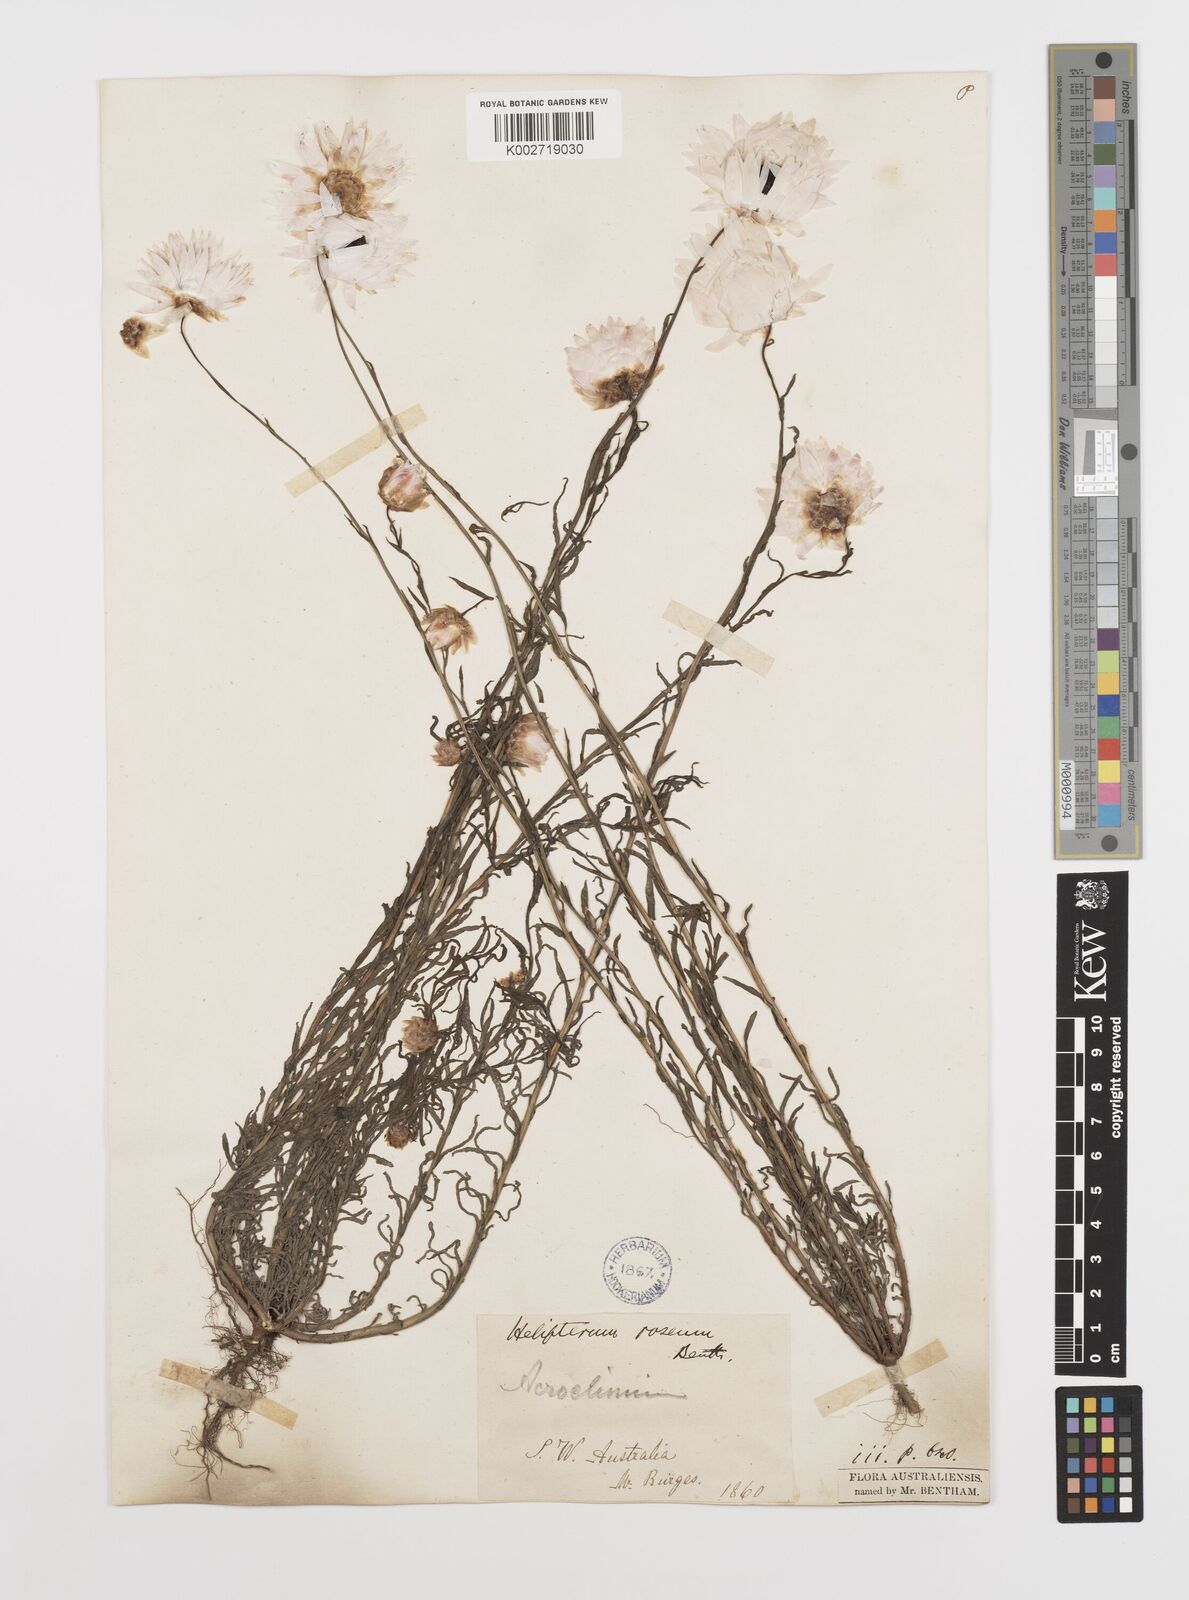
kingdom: Plantae
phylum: Tracheophyta
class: Magnoliopsida
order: Asterales
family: Asteraceae
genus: Rhodanthe
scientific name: Rhodanthe chlorocephala
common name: Rosy sunray
